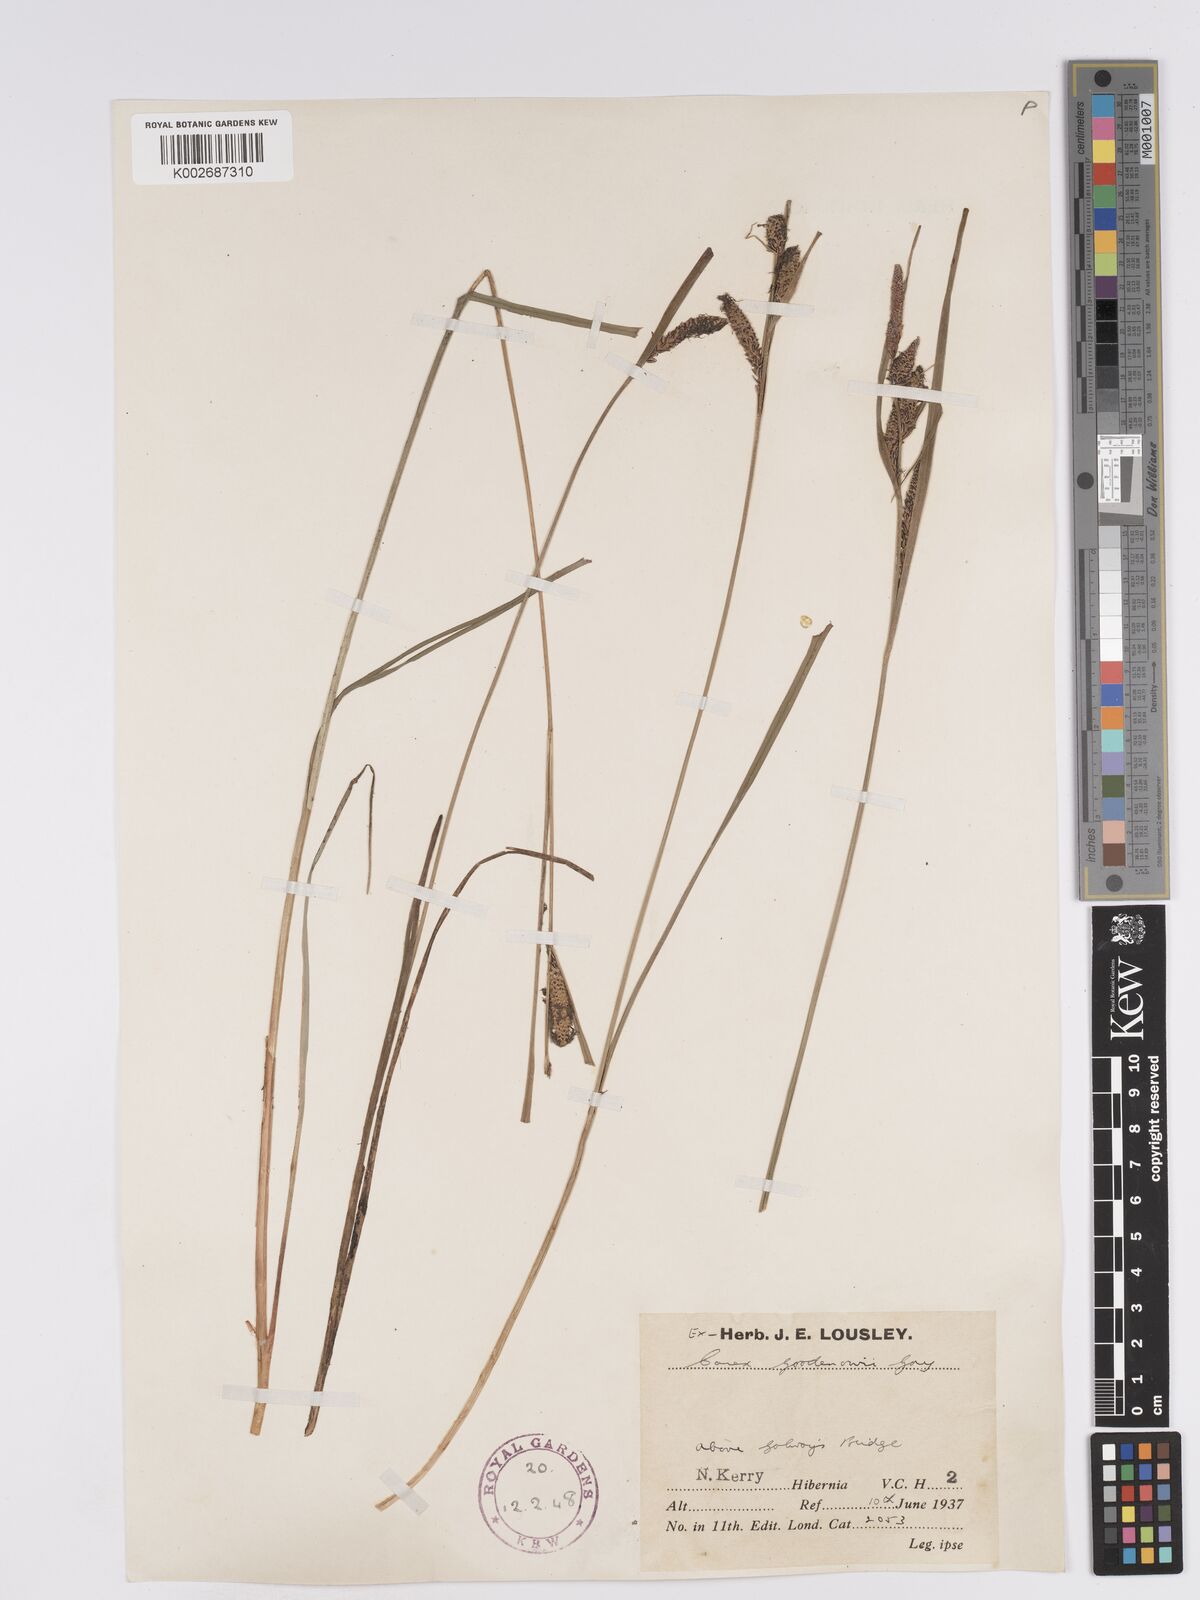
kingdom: Plantae
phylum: Tracheophyta
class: Liliopsida
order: Poales
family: Cyperaceae
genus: Carex
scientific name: Carex nigra
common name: Common sedge
